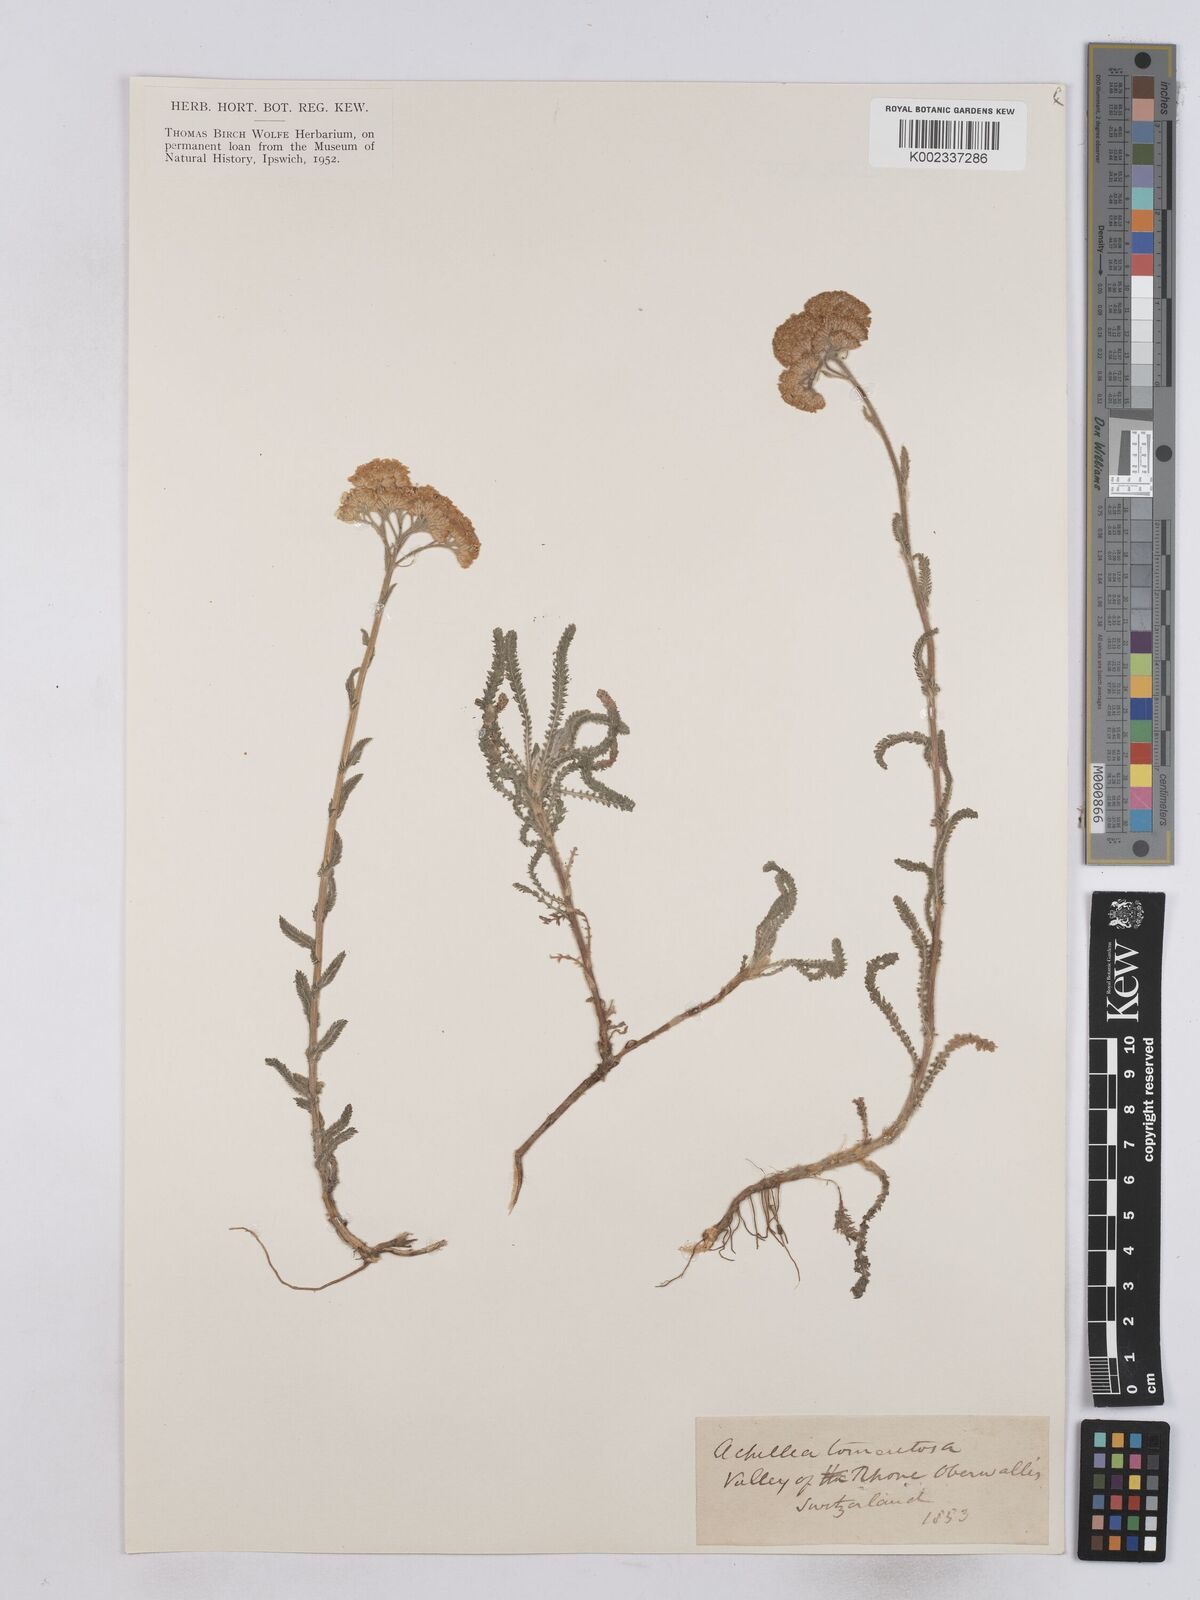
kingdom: Plantae
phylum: Tracheophyta
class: Magnoliopsida
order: Asterales
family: Asteraceae
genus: Achillea
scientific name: Achillea tomentosa
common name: Yellow milfoil
